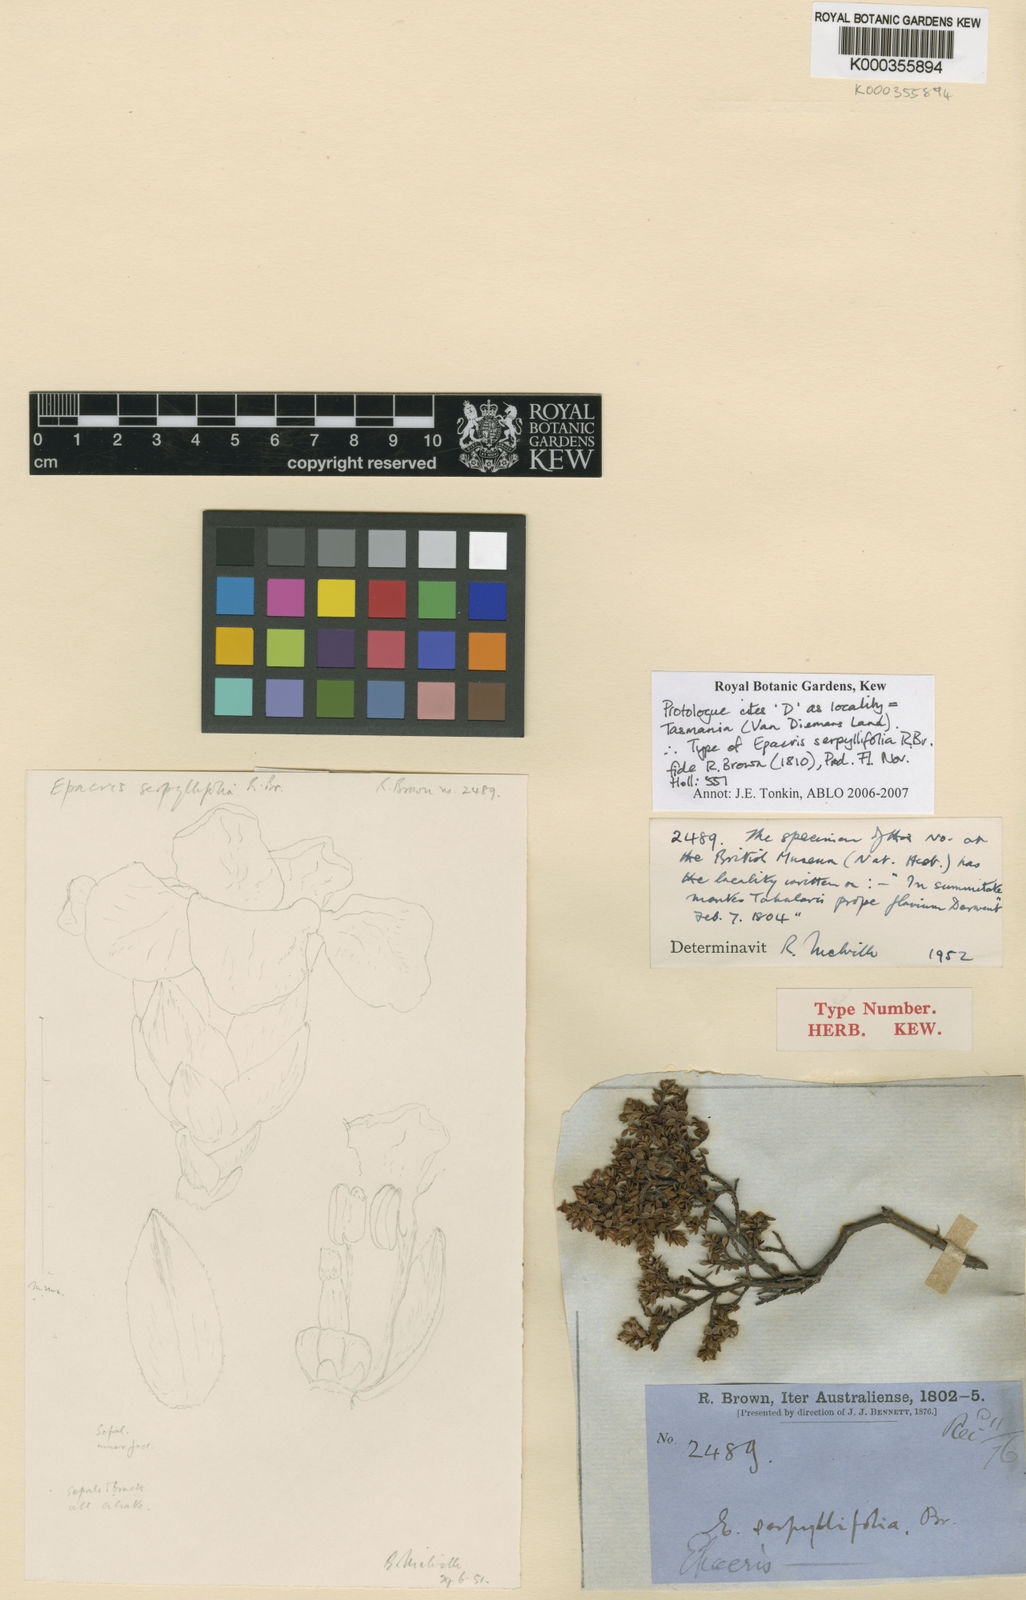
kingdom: Plantae
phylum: Tracheophyta
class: Magnoliopsida
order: Ericales
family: Ericaceae
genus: Epacris
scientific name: Epacris serpyllifolia
